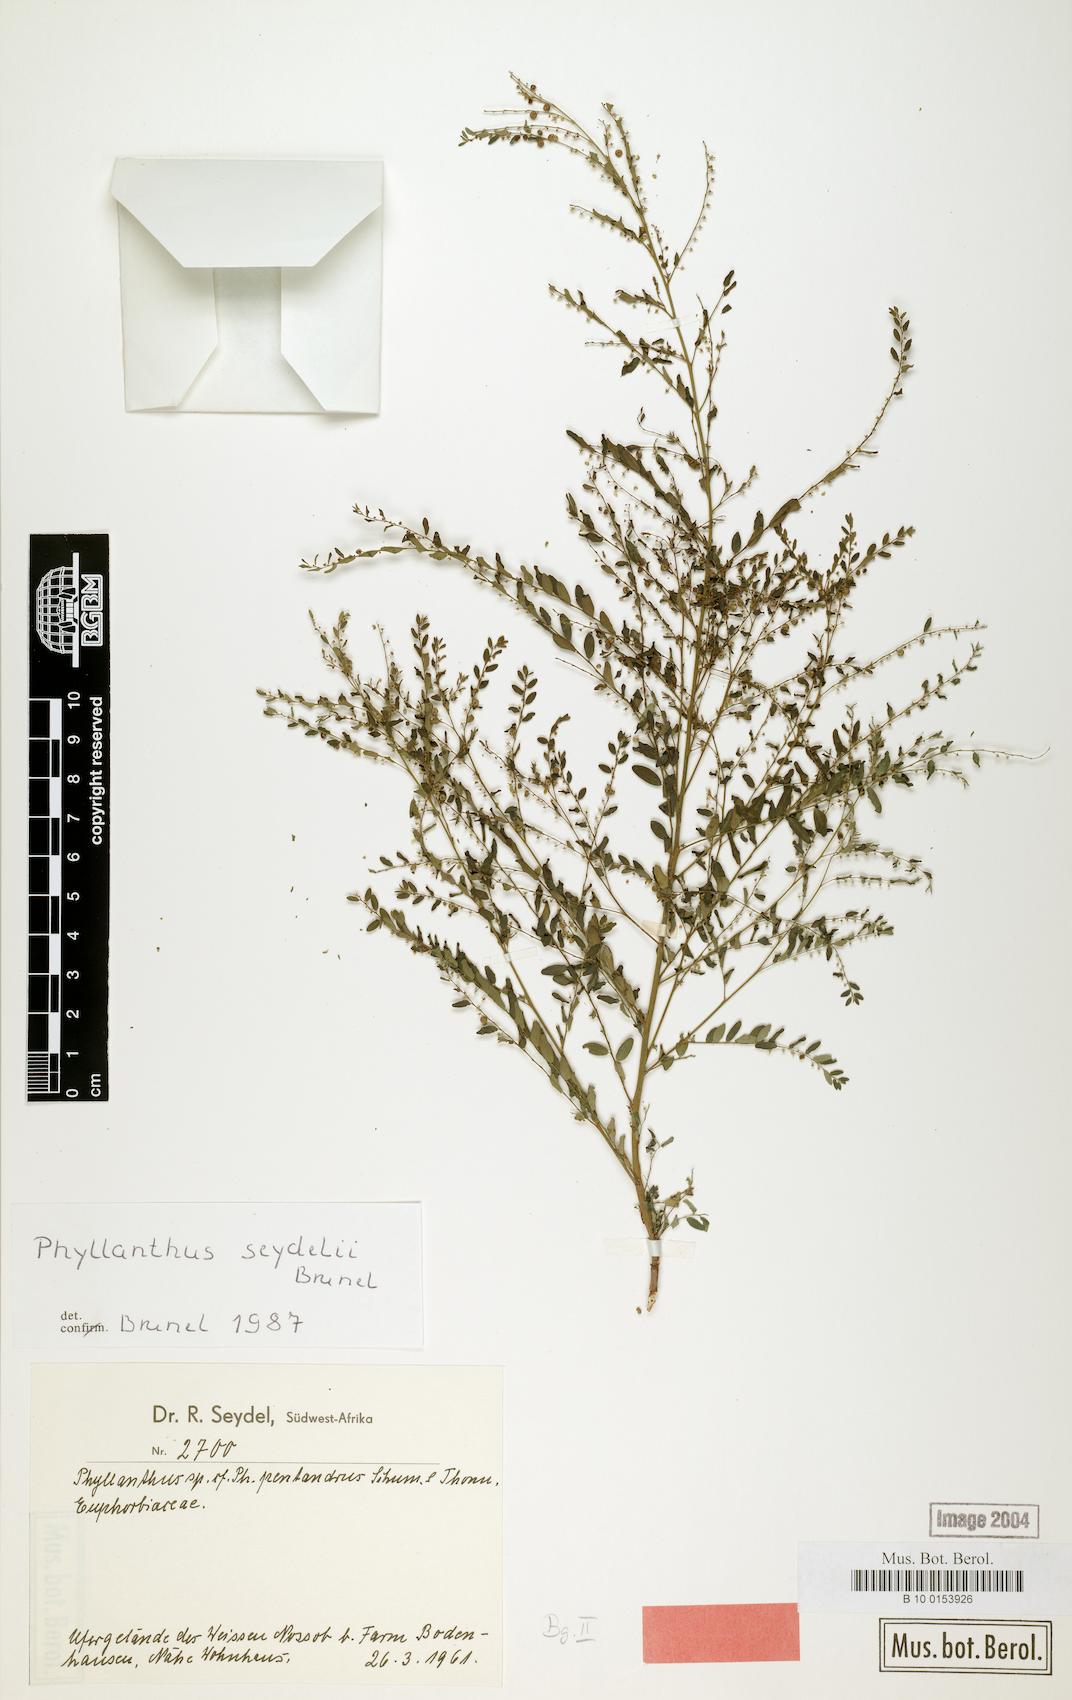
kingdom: Plantae
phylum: Tracheophyta
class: Magnoliopsida
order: Malpighiales
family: Phyllanthaceae
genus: Phyllanthus
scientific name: Phyllanthus parvulus
